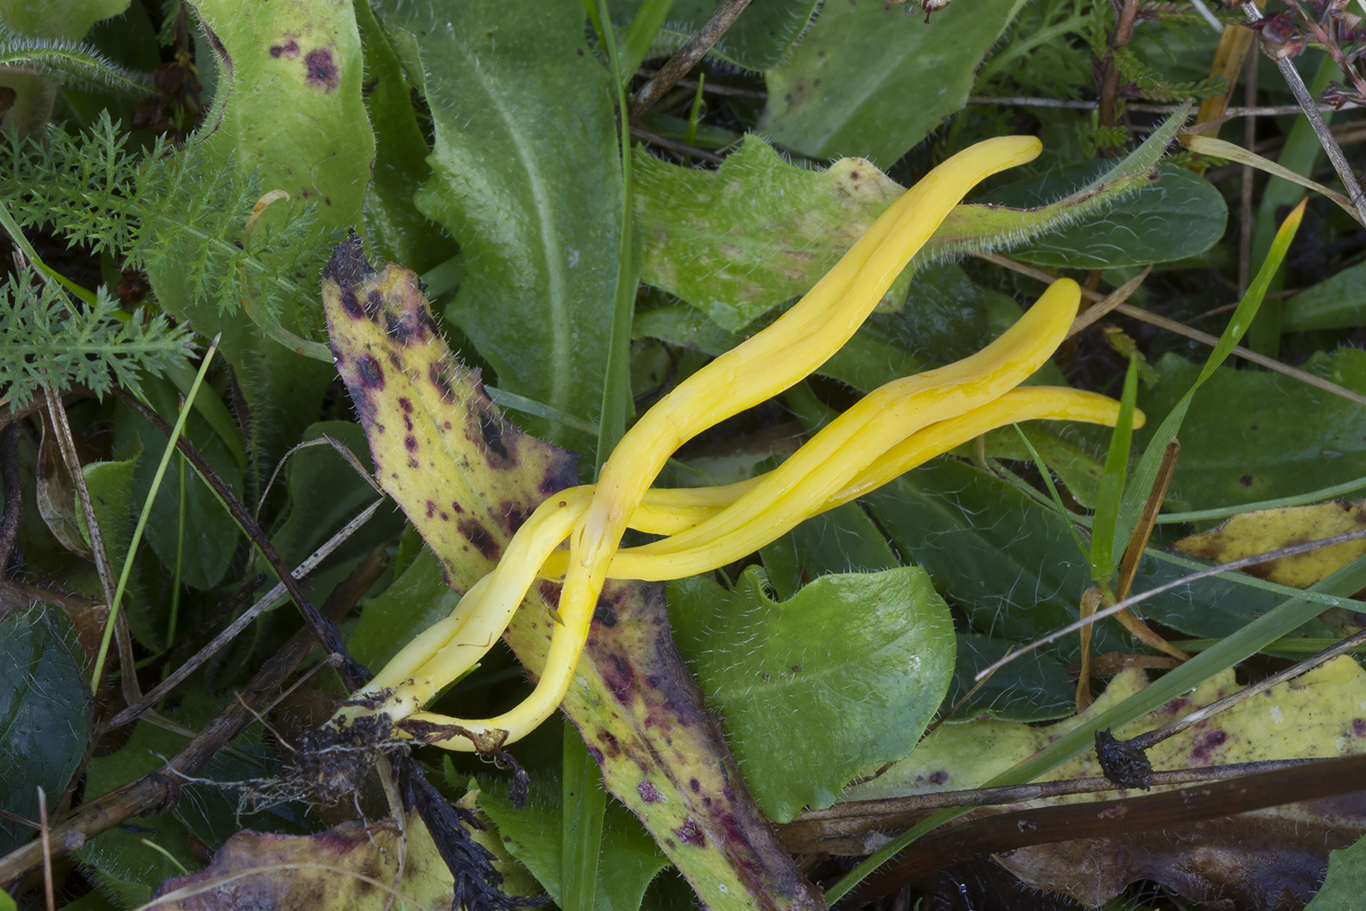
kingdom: Fungi
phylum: Basidiomycota
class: Agaricomycetes
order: Agaricales
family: Clavariaceae
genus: Clavulinopsis
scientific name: Clavulinopsis helvola
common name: orangegul køllesvamp
